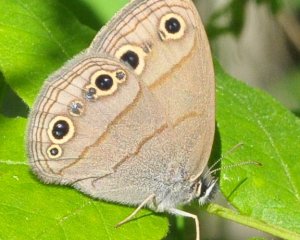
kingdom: Animalia
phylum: Arthropoda
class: Insecta
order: Lepidoptera
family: Nymphalidae
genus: Euptychia
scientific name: Euptychia cymela
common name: Little Wood Satyr
